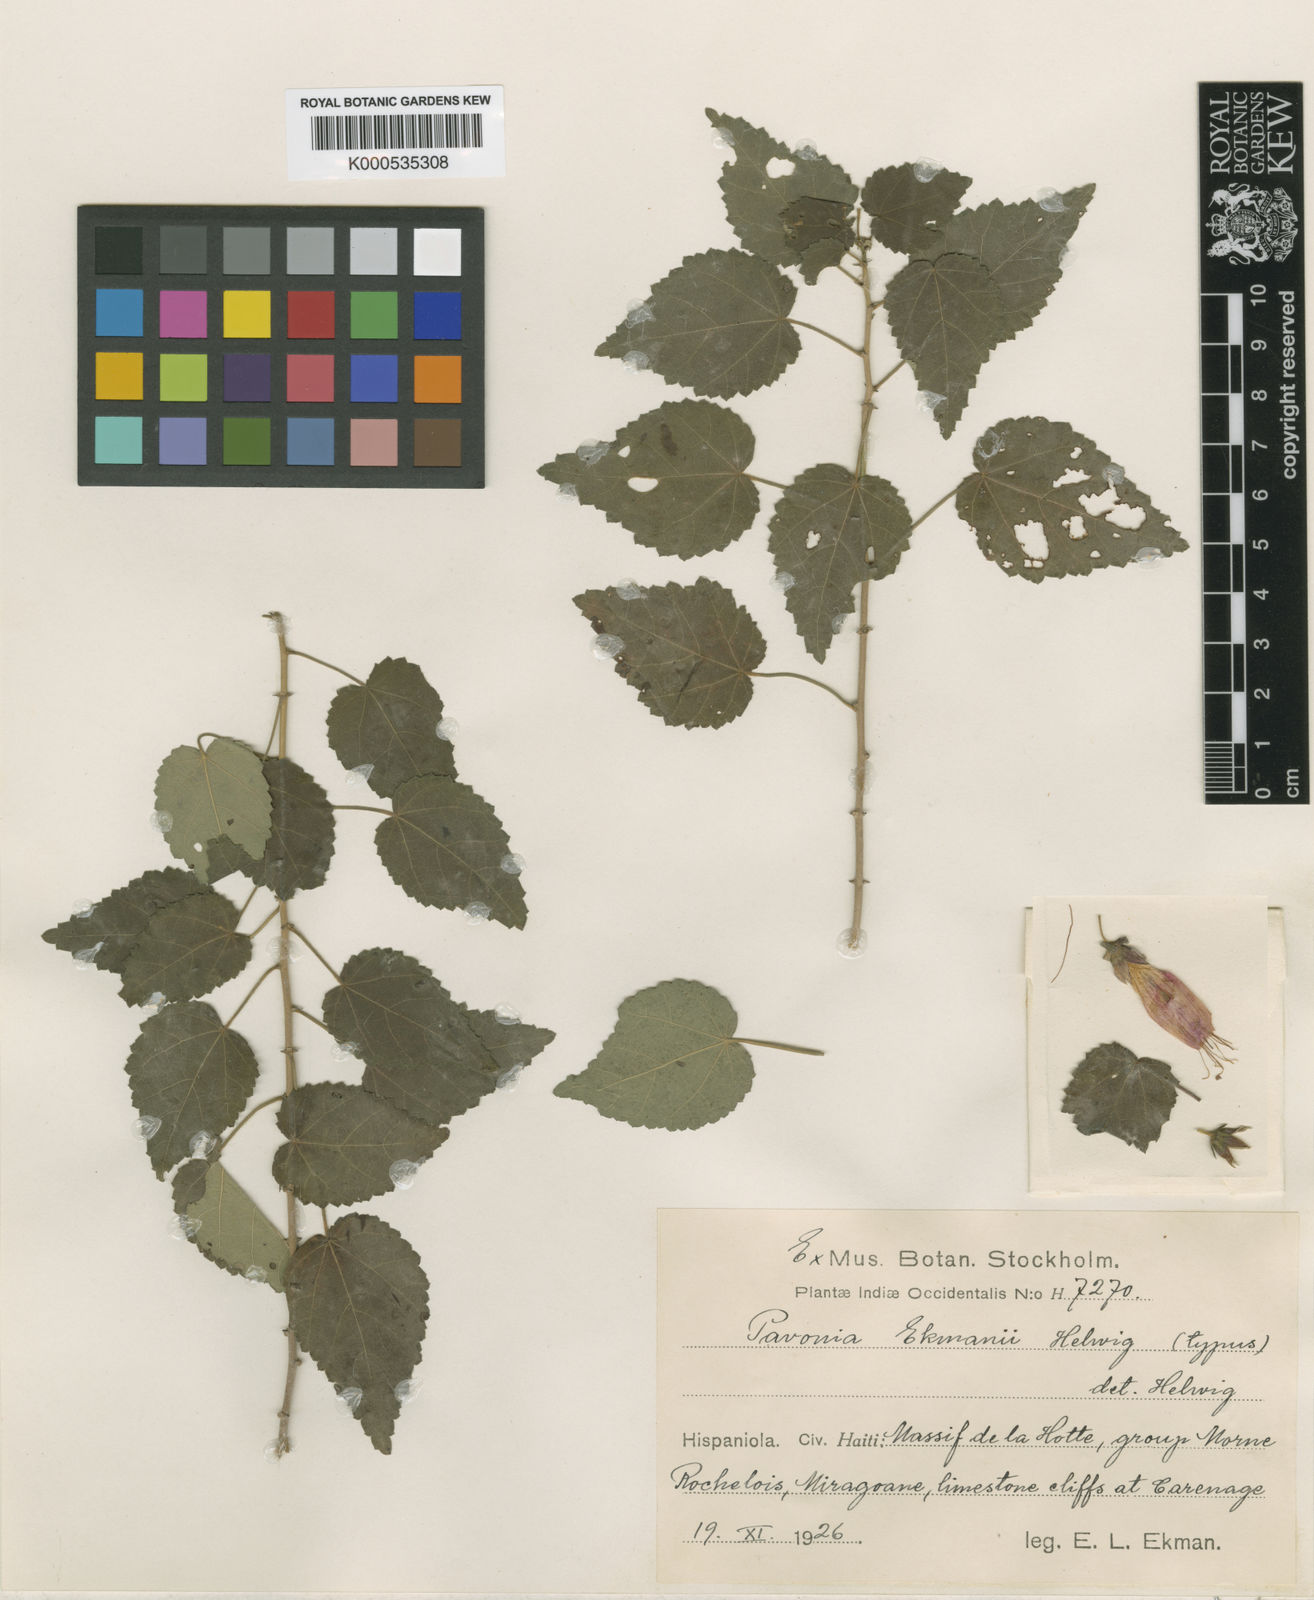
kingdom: Plantae
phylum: Tracheophyta
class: Magnoliopsida
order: Malvales
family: Malvaceae
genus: Pavonia
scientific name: Pavonia ekmanii
